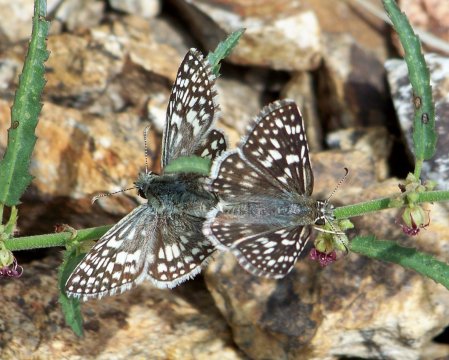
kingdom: Animalia
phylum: Arthropoda
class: Insecta
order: Lepidoptera
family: Hesperiidae
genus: Pyrgus
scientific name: Pyrgus oileus
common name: Desert Checkered-Skipper
